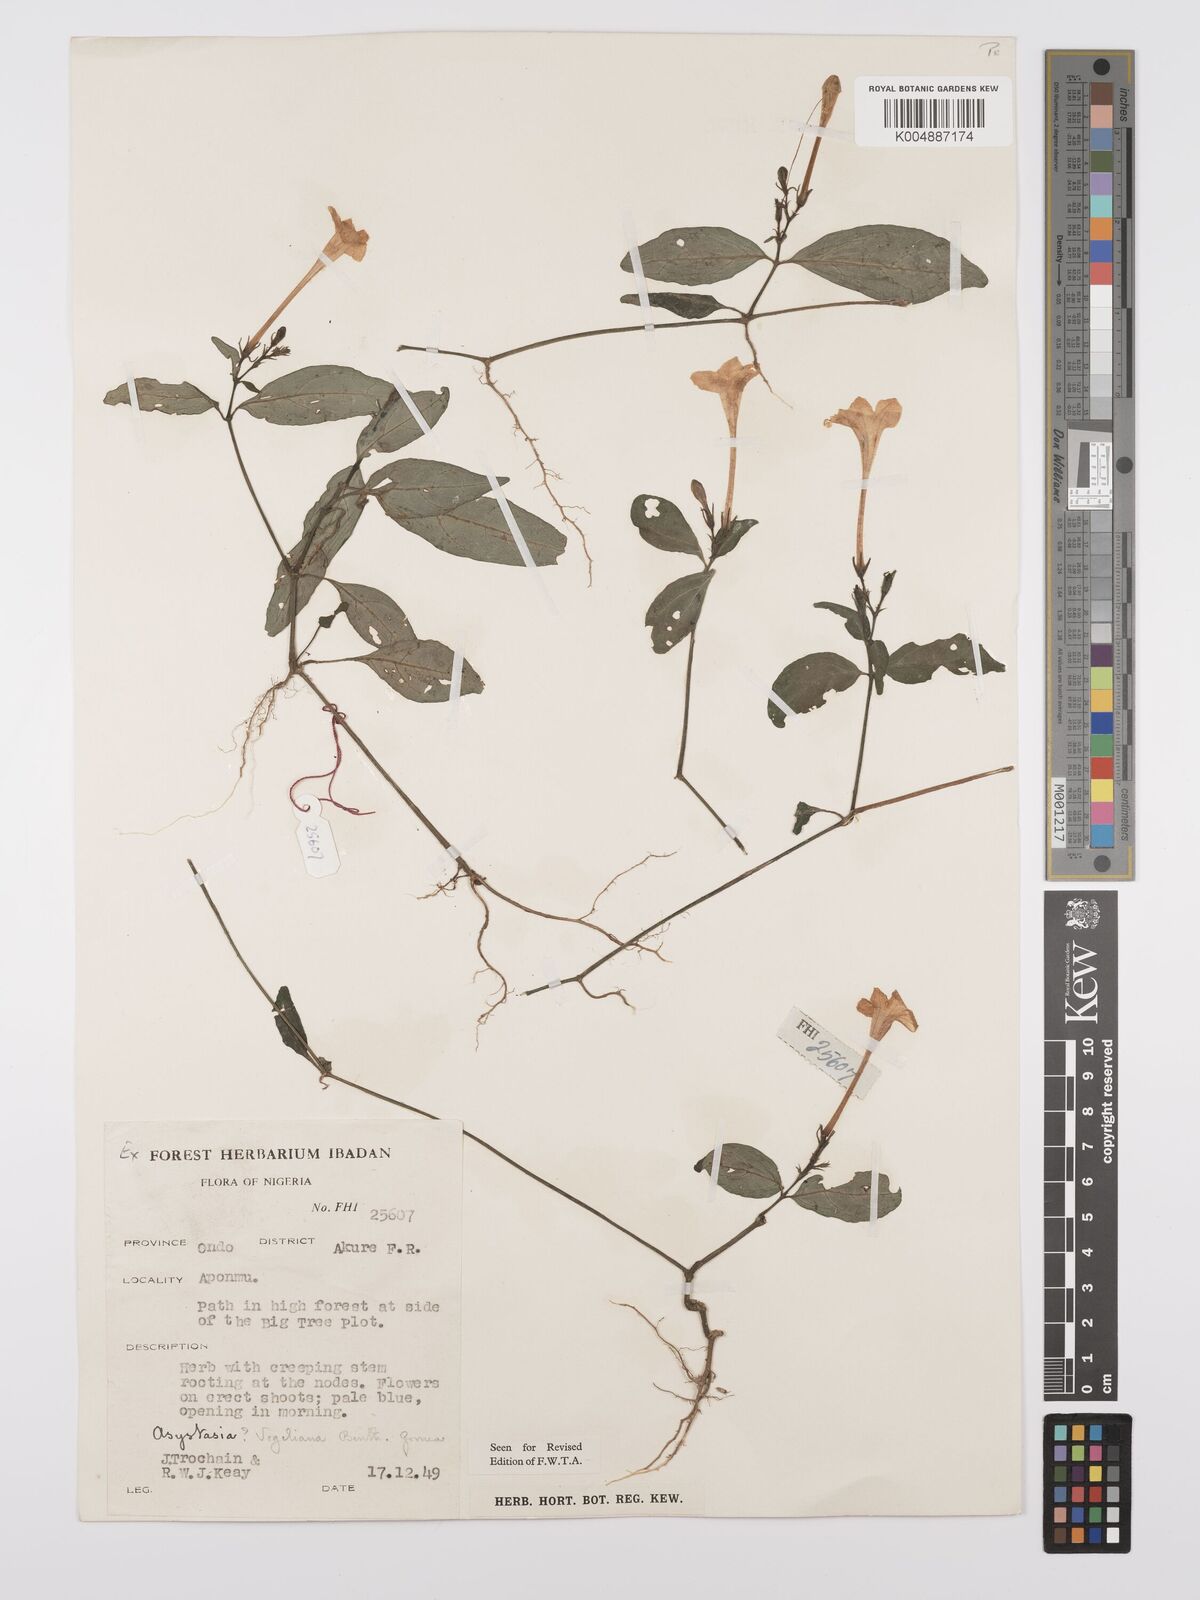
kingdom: Plantae
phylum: Tracheophyta
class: Magnoliopsida
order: Lamiales
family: Acanthaceae
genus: Asystasia
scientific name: Asystasia vogeliana
